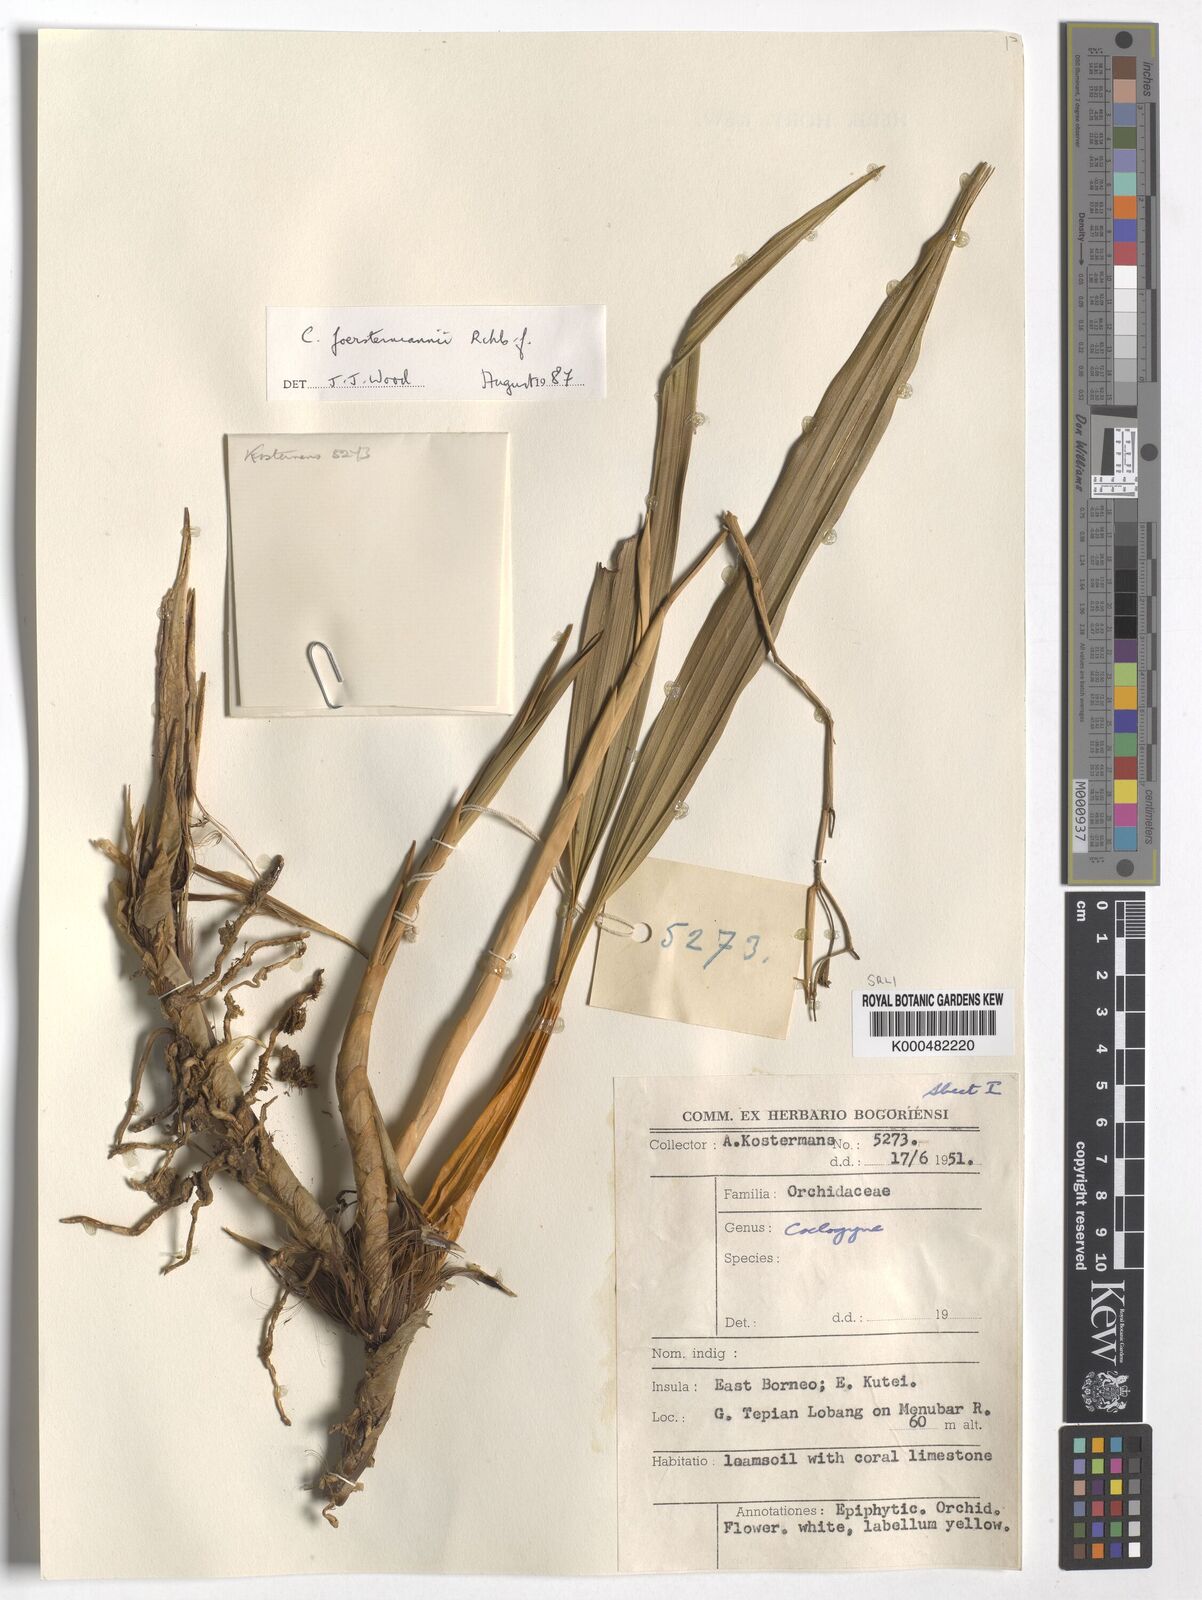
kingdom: Plantae
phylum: Tracheophyta
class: Liliopsida
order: Asparagales
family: Orchidaceae
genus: Coelogyne
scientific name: Coelogyne
